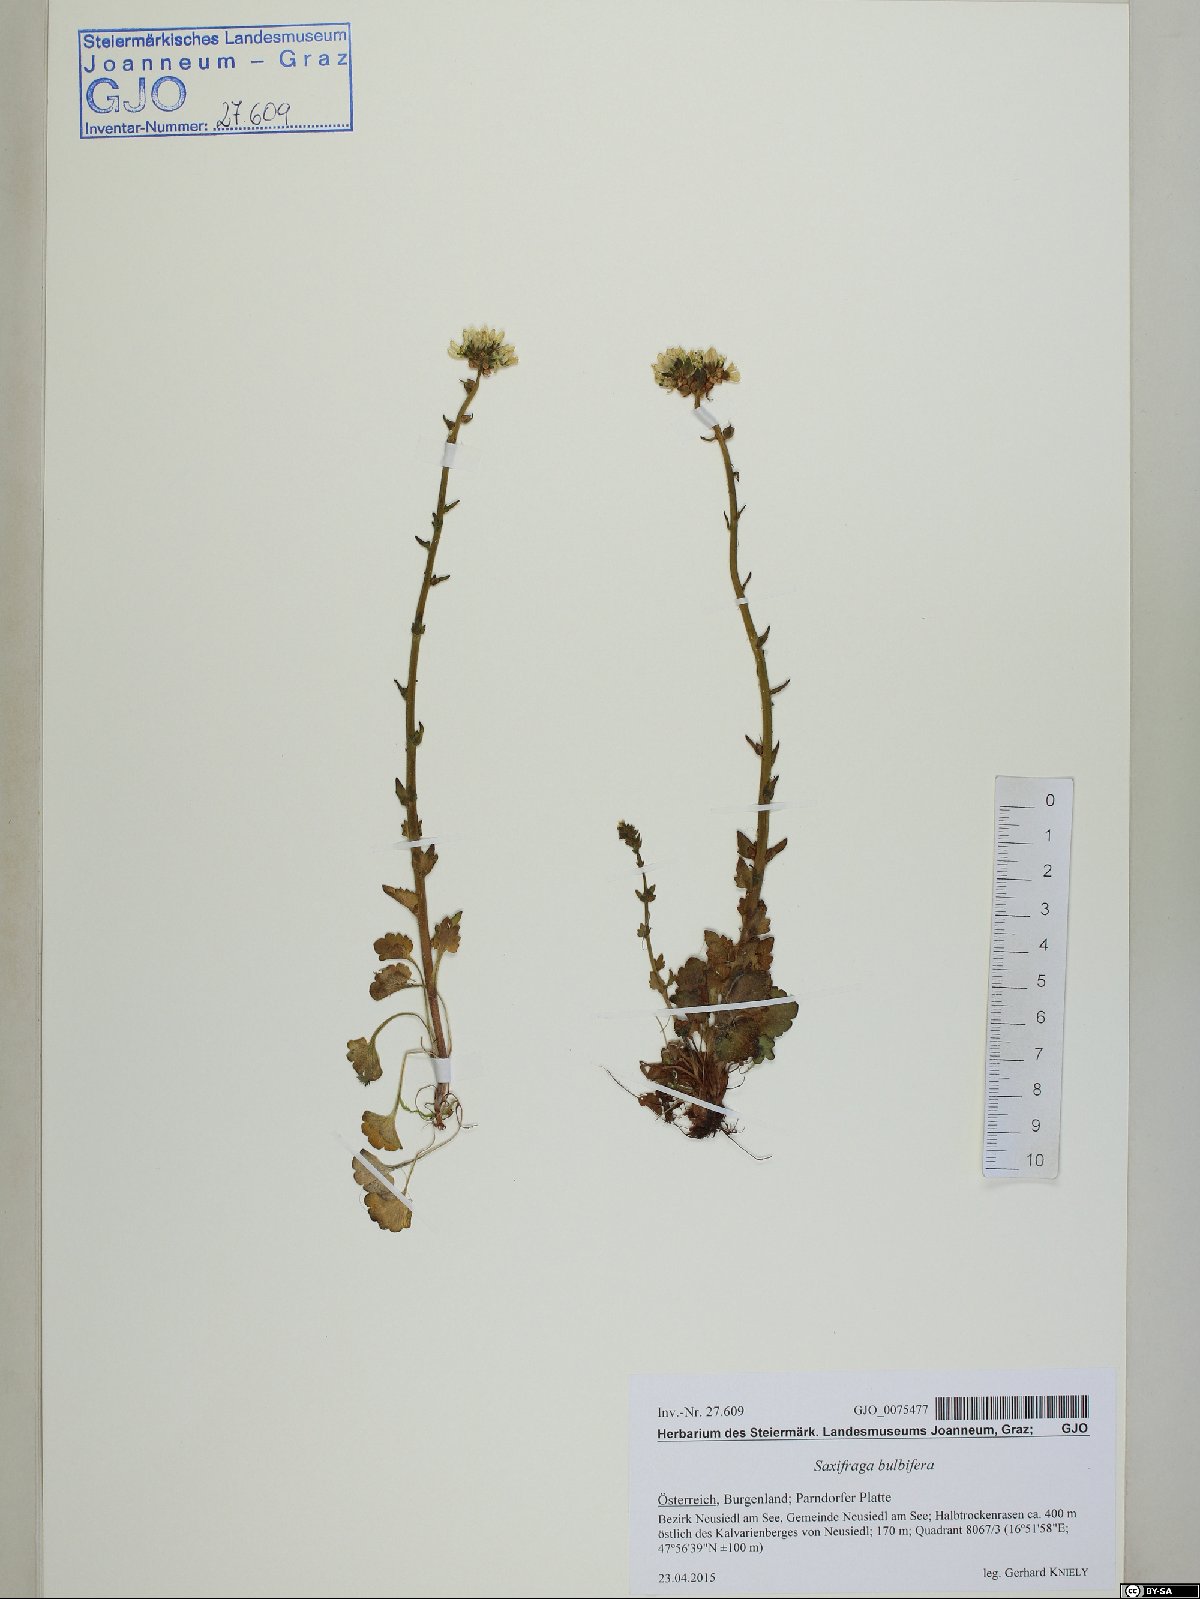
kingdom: Plantae
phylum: Tracheophyta
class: Magnoliopsida
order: Saxifragales
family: Saxifragaceae
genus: Saxifraga
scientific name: Saxifraga bulbifera
